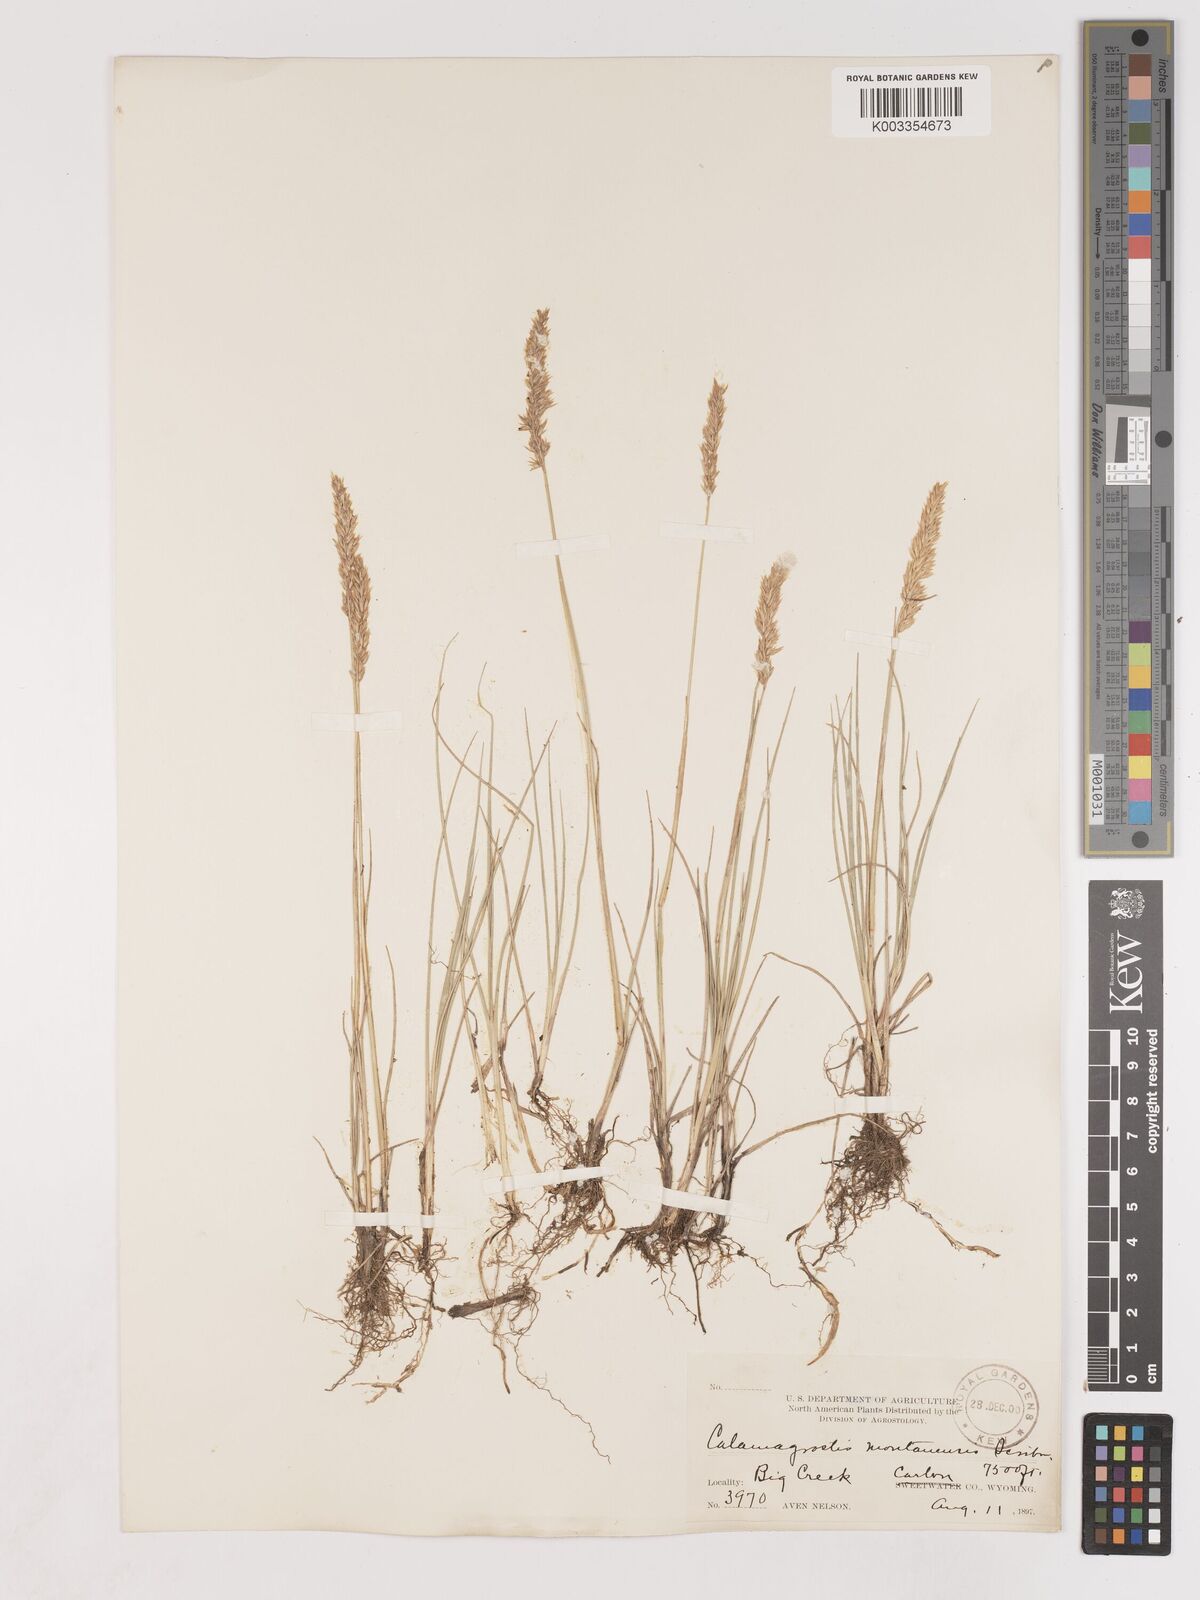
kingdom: Plantae
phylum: Tracheophyta
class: Liliopsida
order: Poales
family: Poaceae
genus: Calamagrostis
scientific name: Calamagrostis montanensis
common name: Plains reedgrass
